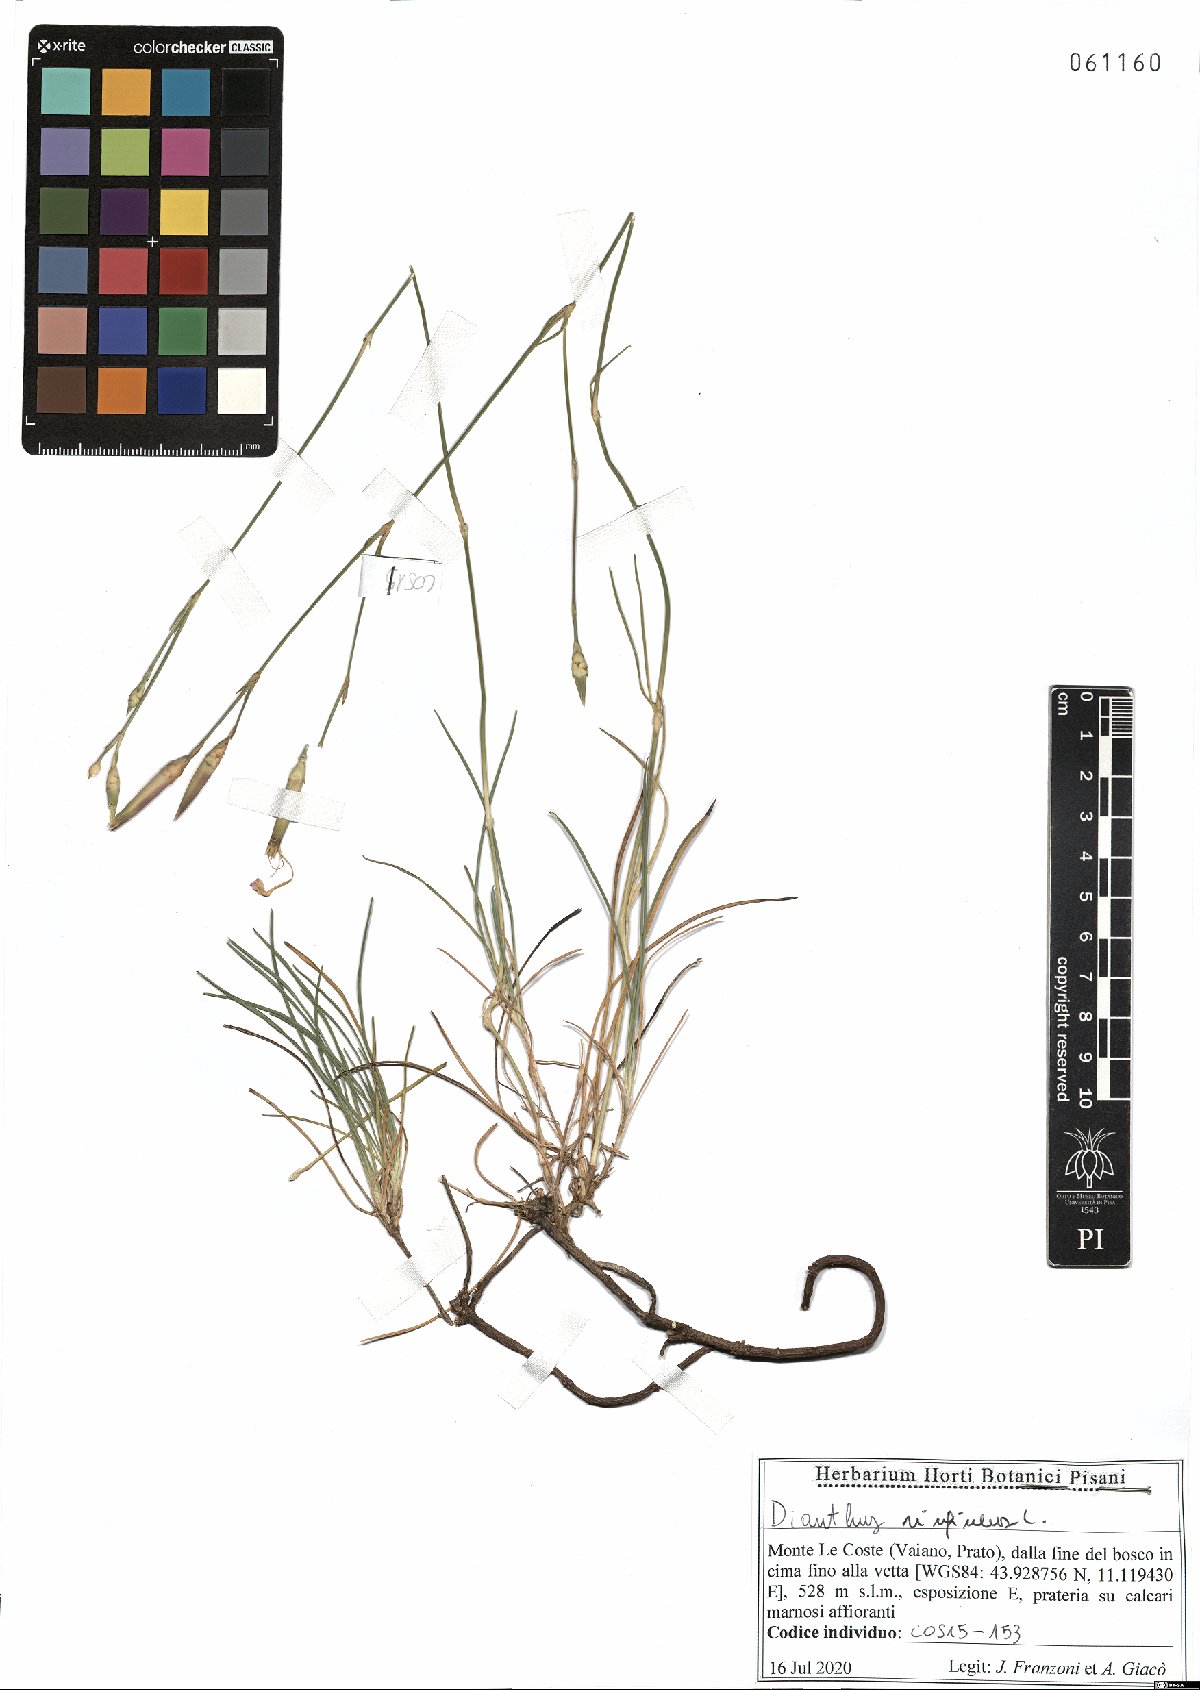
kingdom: Plantae
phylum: Tracheophyta
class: Magnoliopsida
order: Caryophyllales
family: Caryophyllaceae
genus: Dianthus
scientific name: Dianthus virgineus
